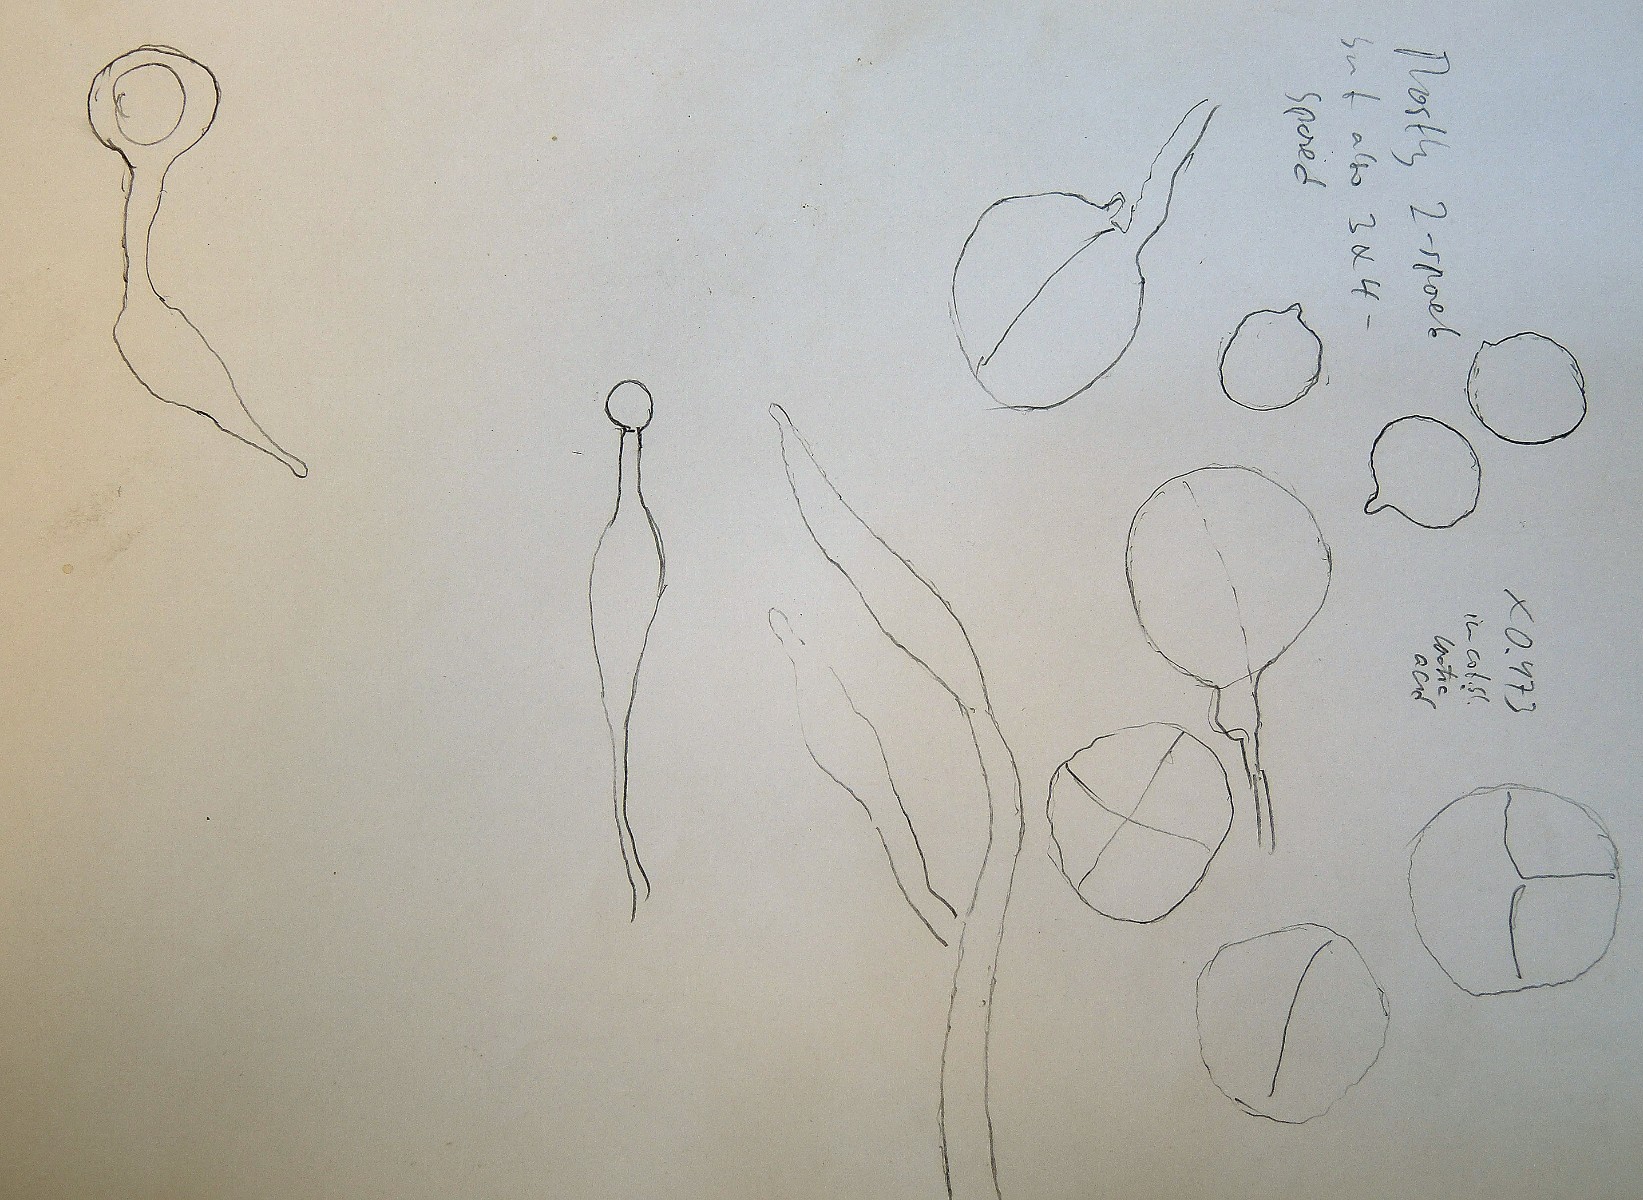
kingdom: Fungi
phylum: Basidiomycota
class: Tremellomycetes
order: Tremellales
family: Tremellaceae
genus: Tremella
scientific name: Tremella indecorata
